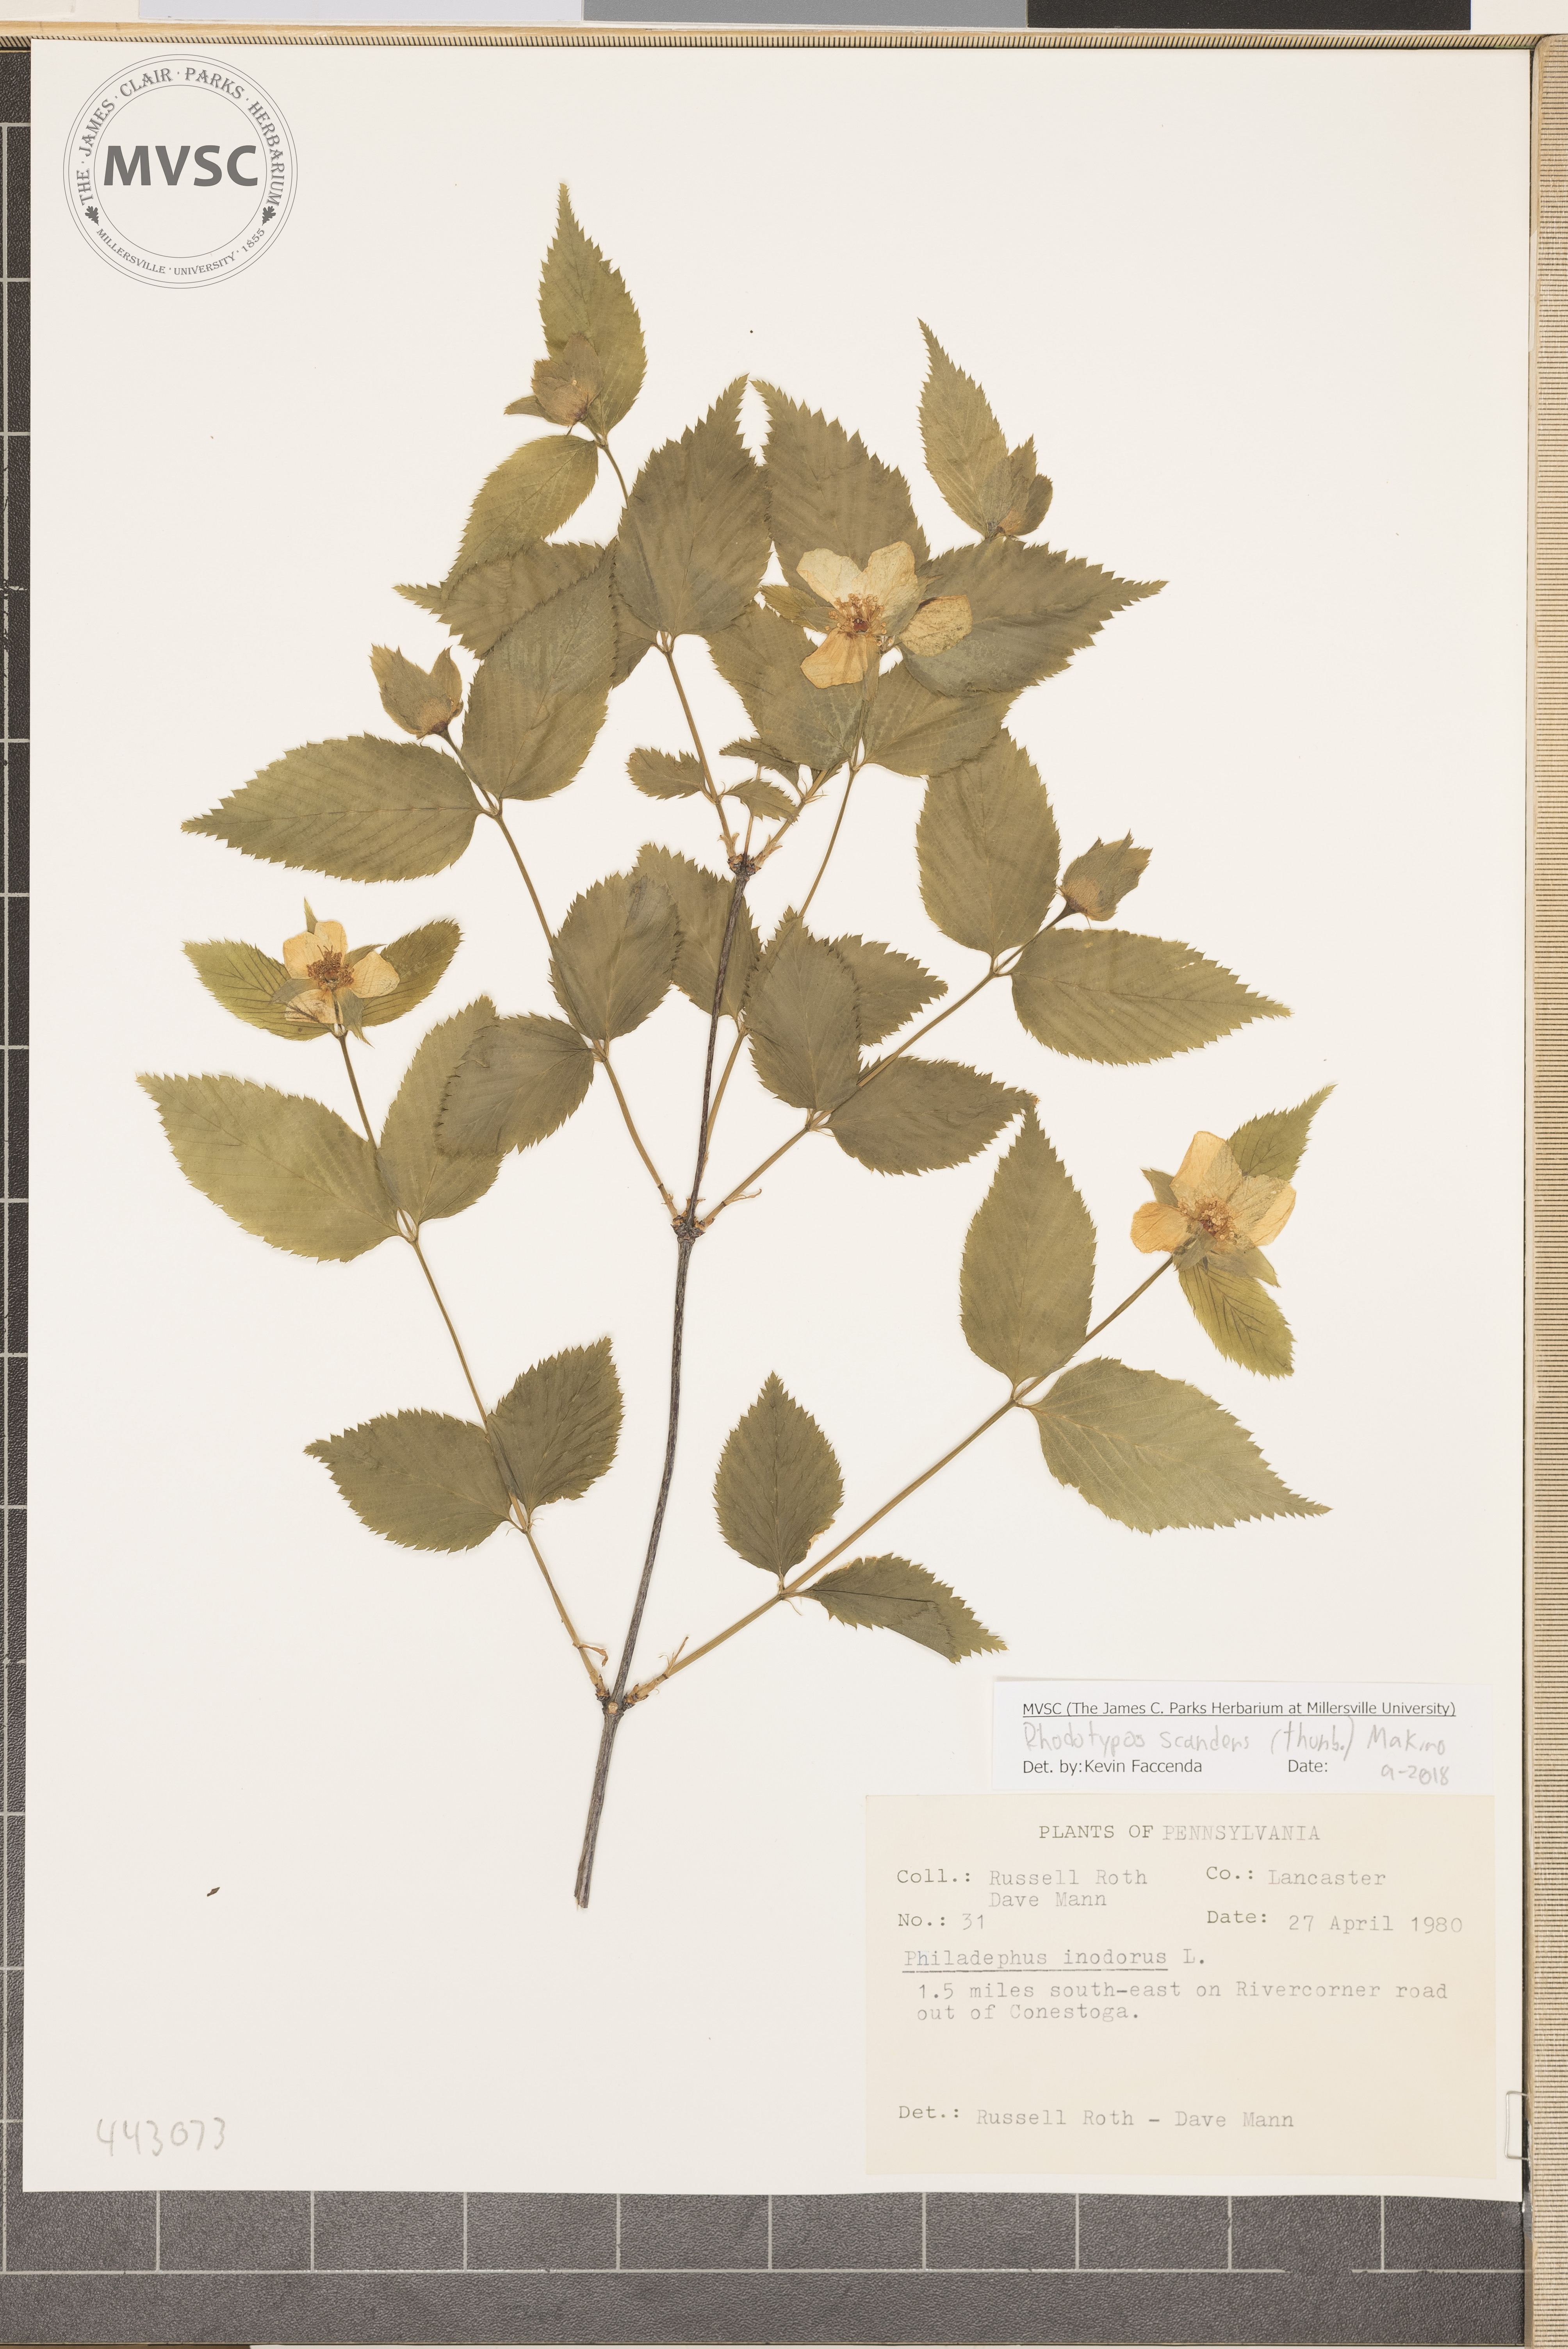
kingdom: Plantae
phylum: Tracheophyta
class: Magnoliopsida
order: Rosales
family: Rosaceae
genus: Rhodotypos
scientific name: Rhodotypos scandens
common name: Jetbead
